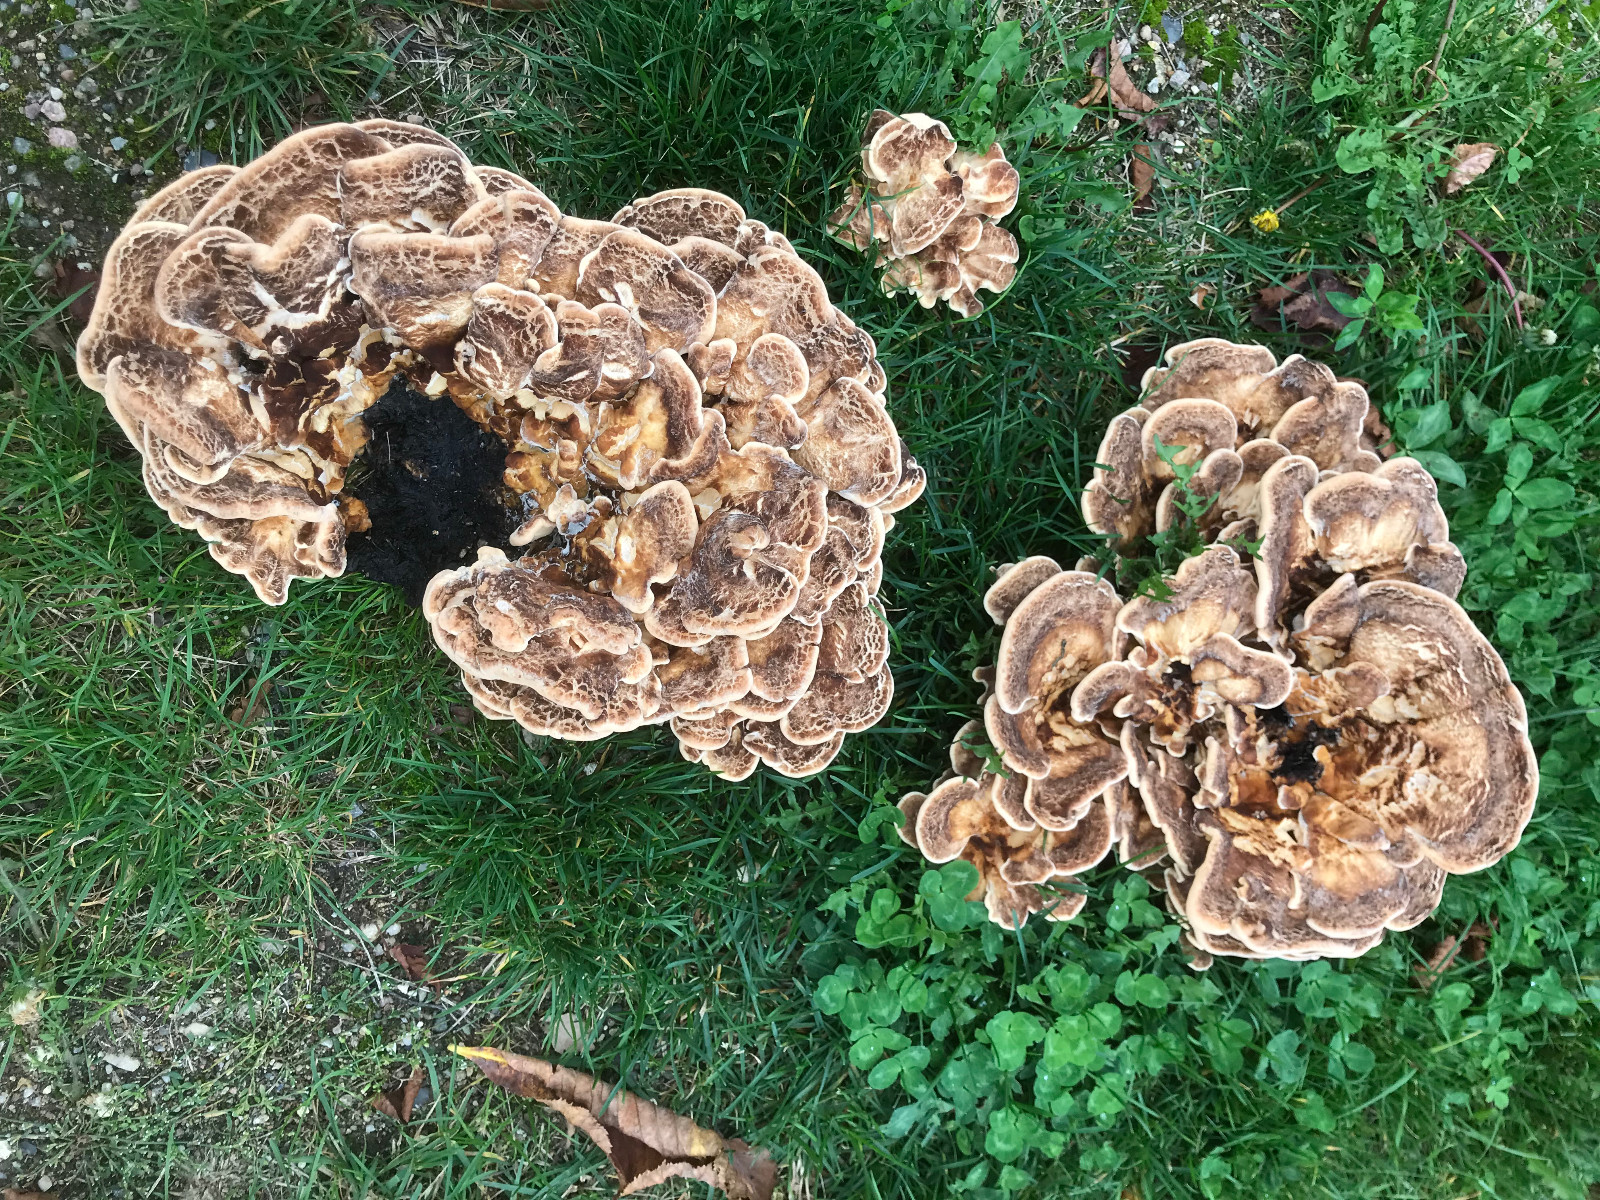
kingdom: Fungi
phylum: Basidiomycota
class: Agaricomycetes
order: Polyporales
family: Meripilaceae
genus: Meripilus
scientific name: Meripilus giganteus
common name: kæmpeporesvamp
